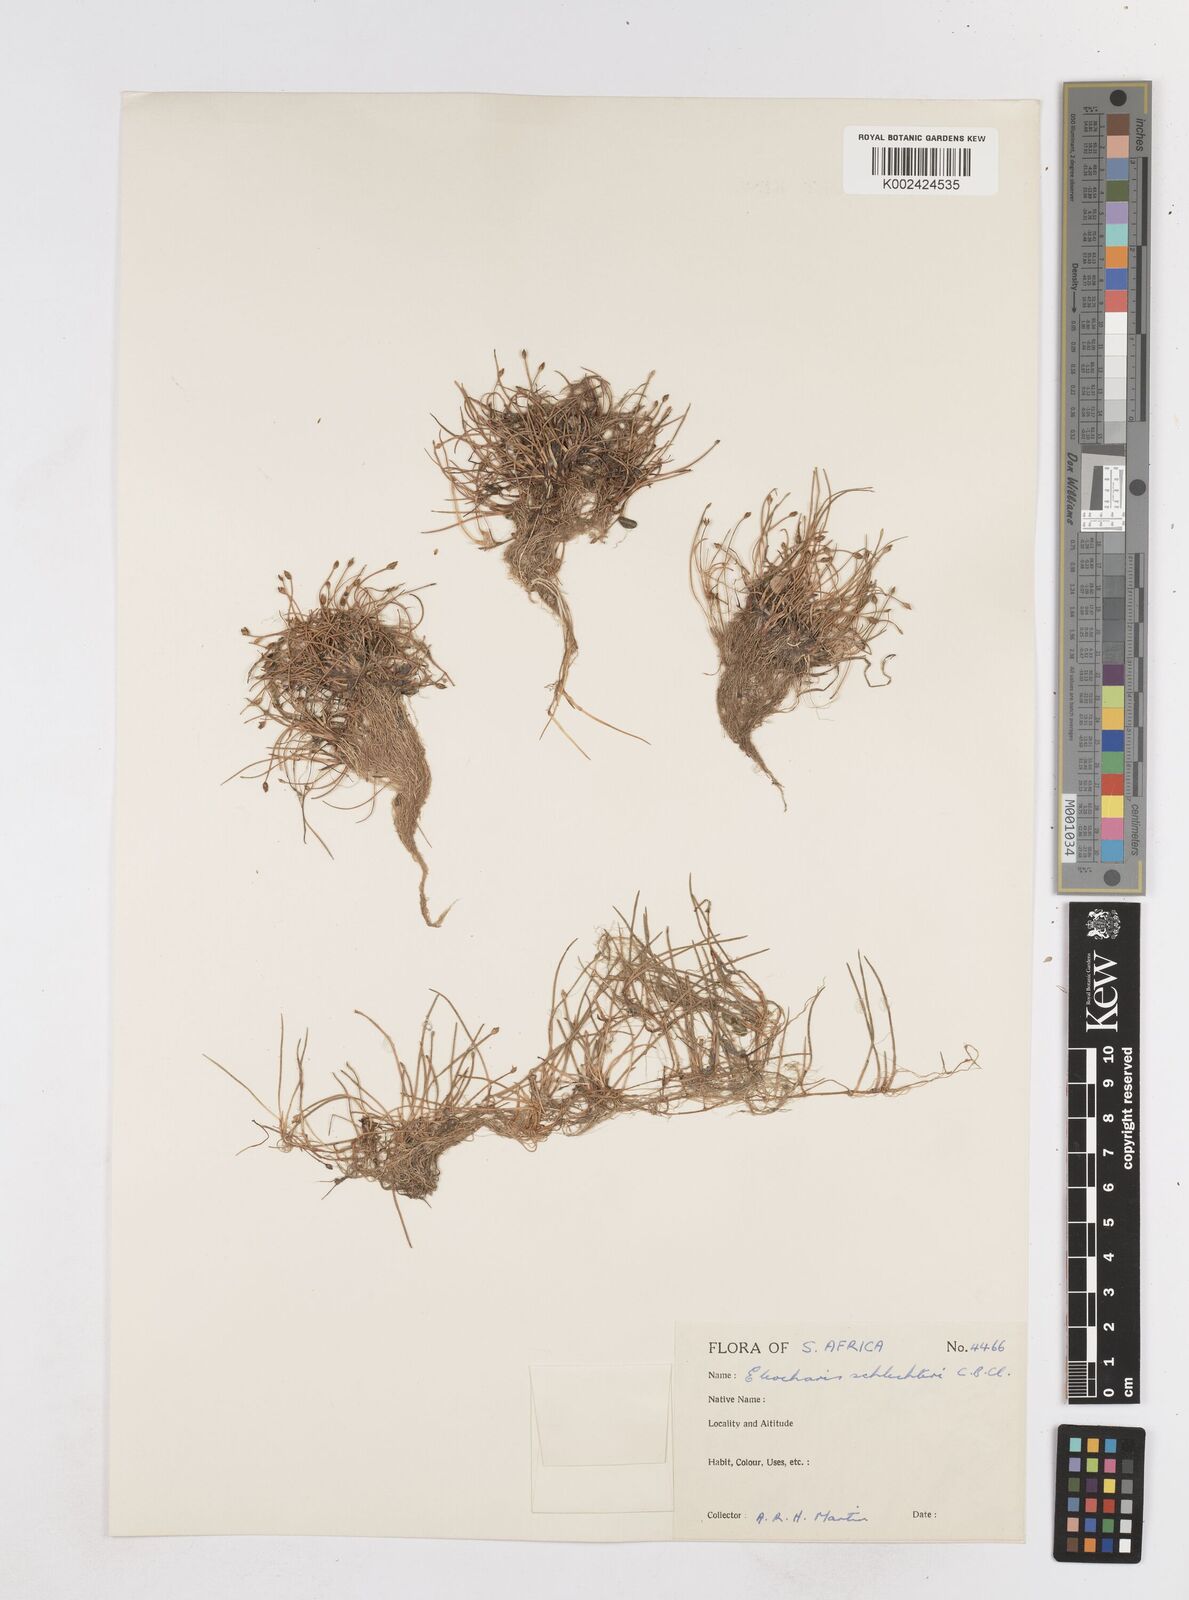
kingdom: Plantae
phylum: Tracheophyta
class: Liliopsida
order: Poales
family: Cyperaceae
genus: Eleocharis
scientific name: Eleocharis geniculata
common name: Canada spikesedge
